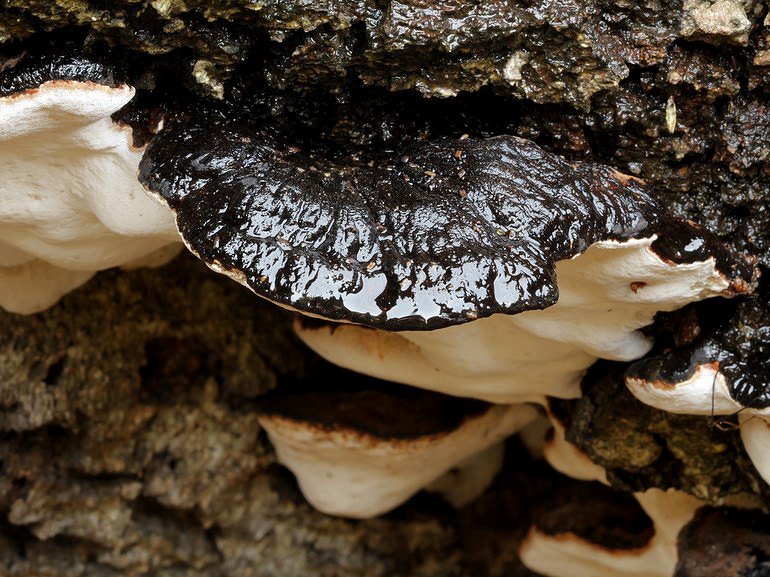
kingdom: Fungi
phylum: Basidiomycota
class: Agaricomycetes
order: Polyporales
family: Ischnodermataceae
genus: Ischnoderma
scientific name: Ischnoderma resinosum
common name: løv-tjæreporesvamp
